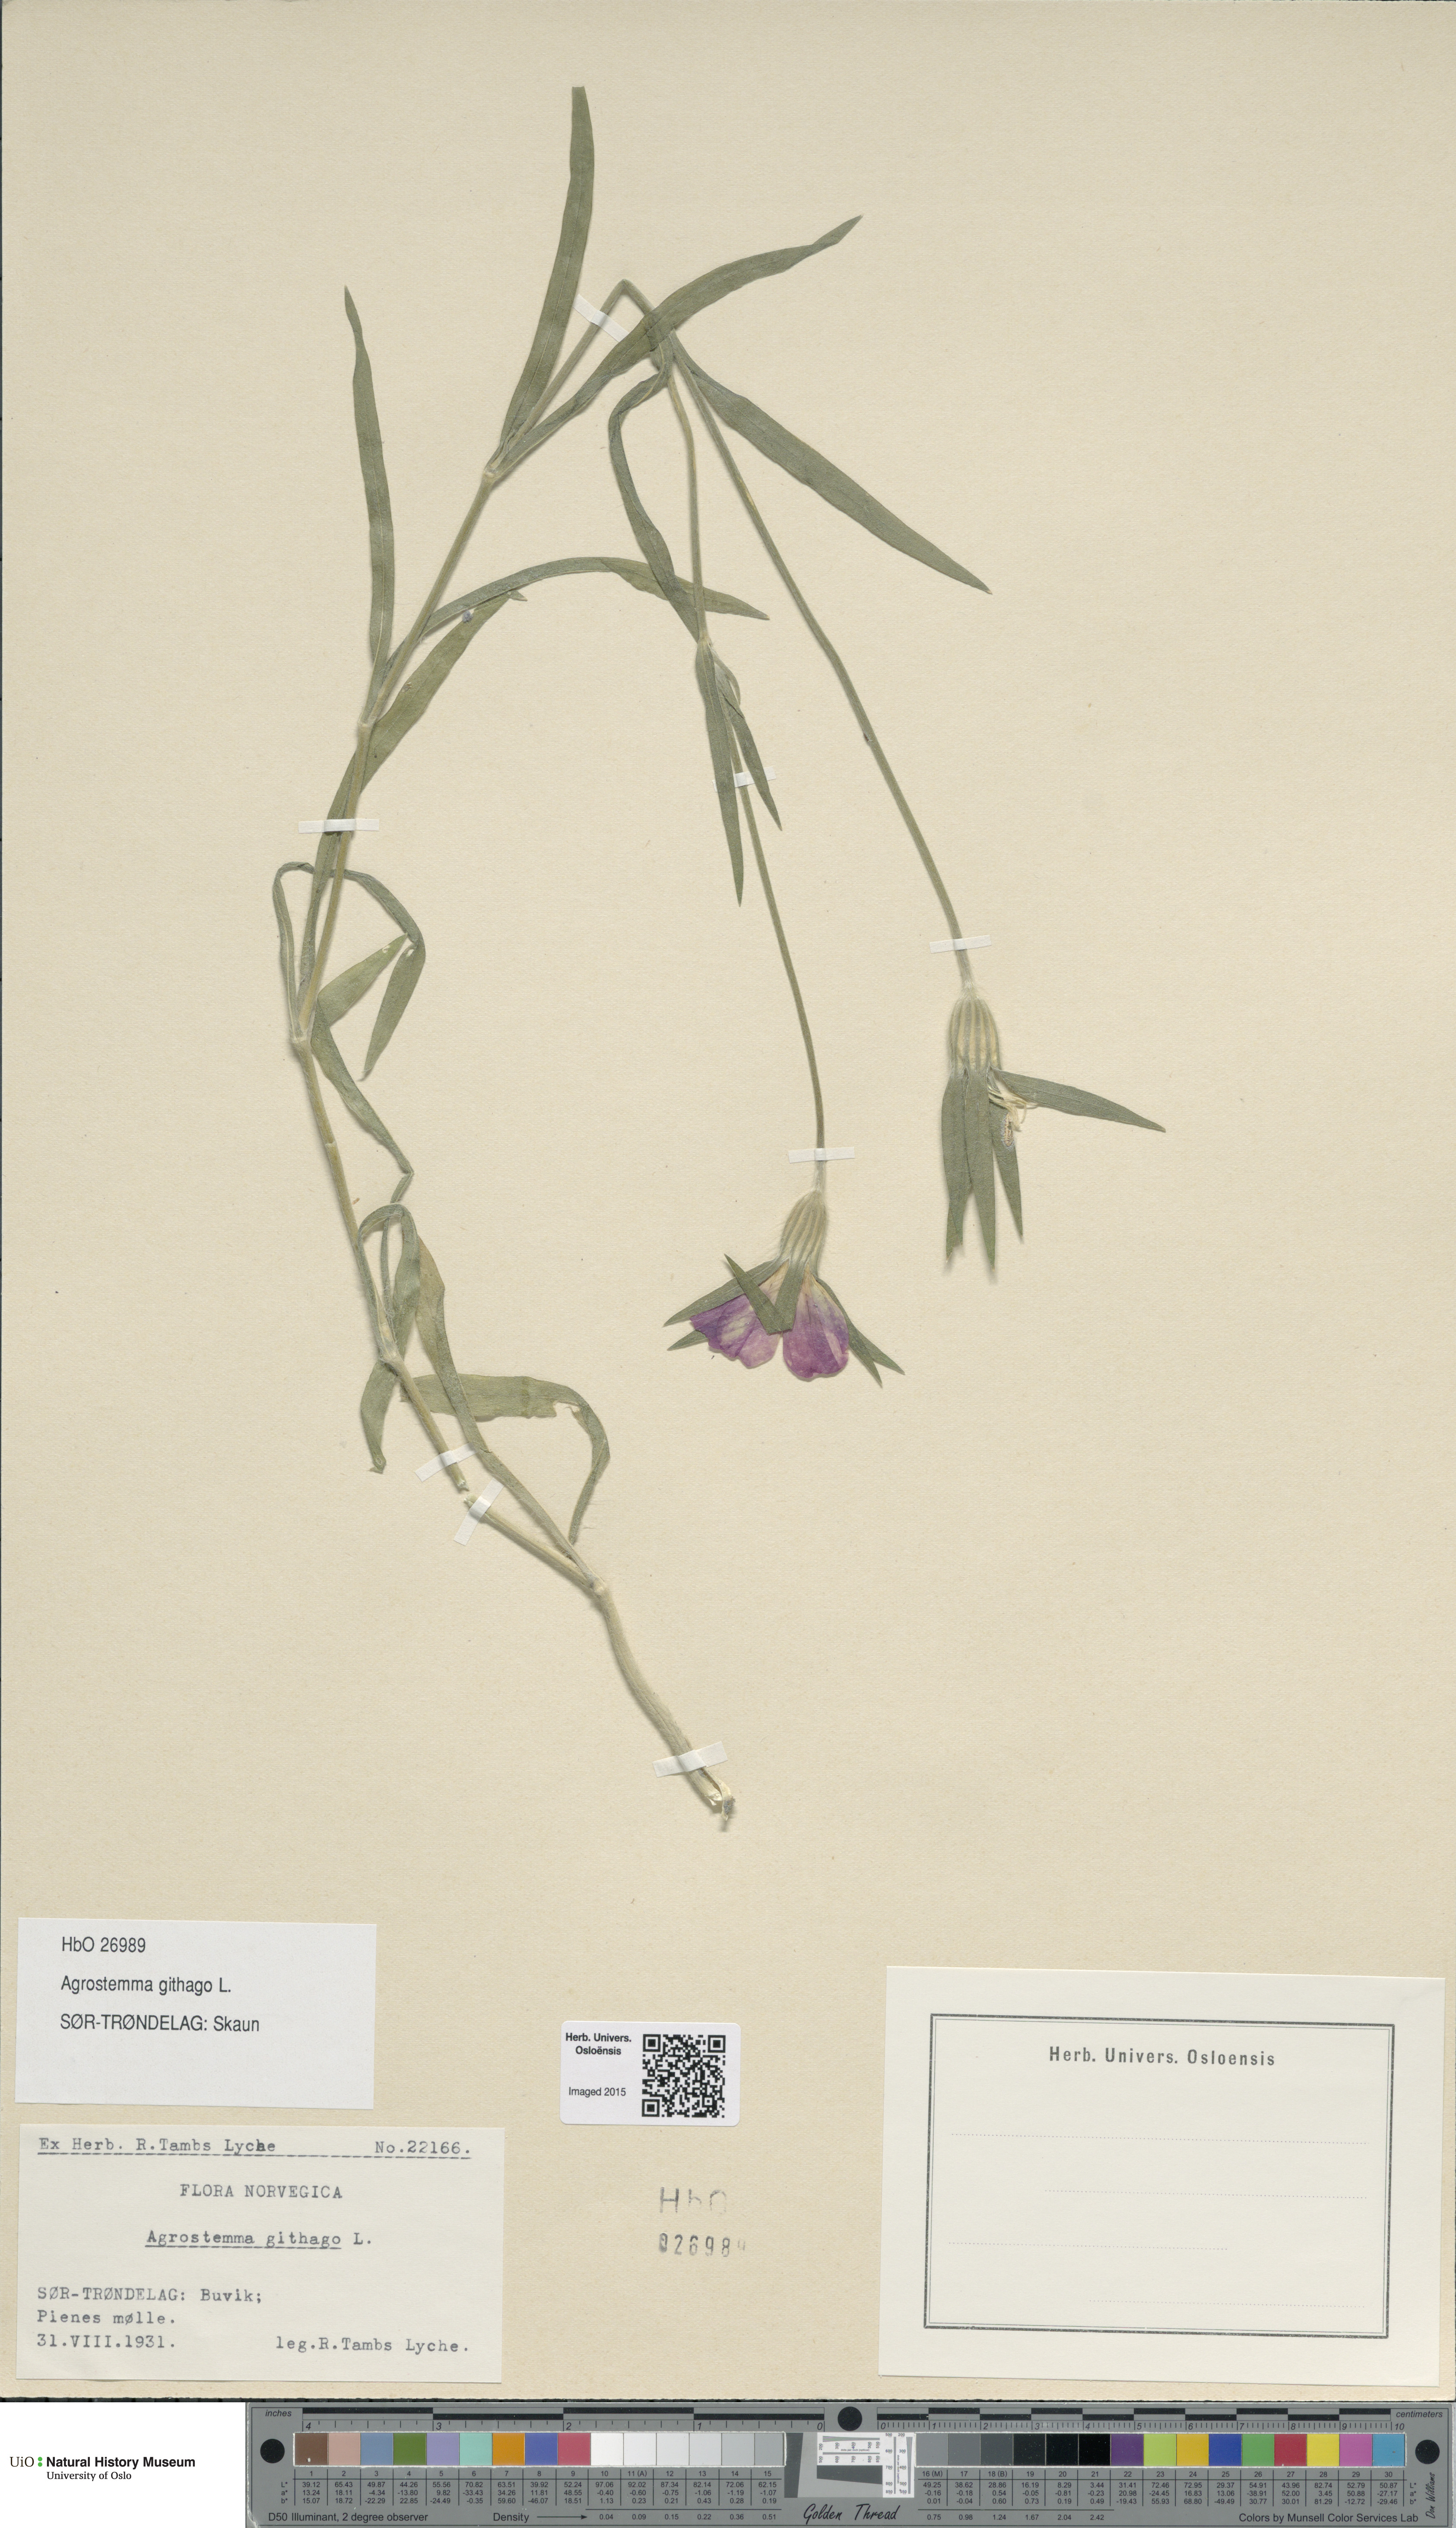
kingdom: Plantae
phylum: Tracheophyta
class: Magnoliopsida
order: Caryophyllales
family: Caryophyllaceae
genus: Agrostemma
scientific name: Agrostemma githago
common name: Common corncockle
